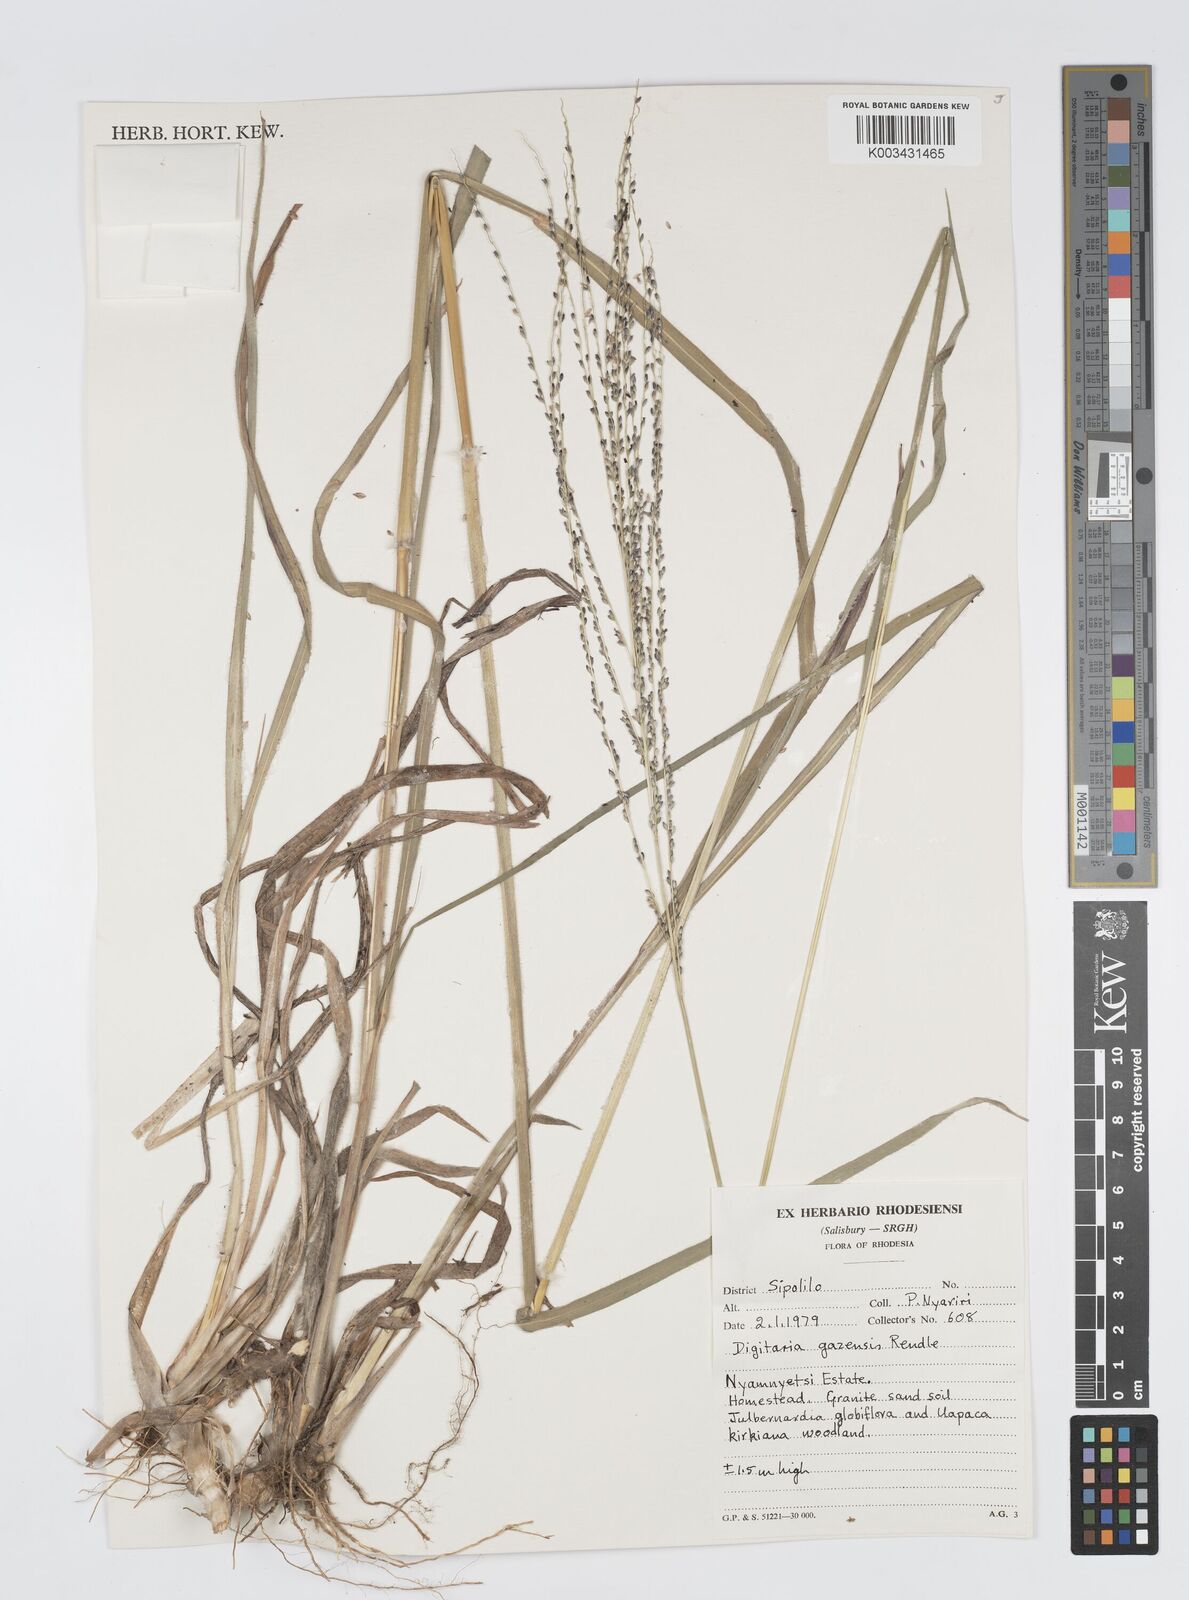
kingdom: Plantae
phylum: Tracheophyta
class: Liliopsida
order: Poales
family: Poaceae
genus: Digitaria
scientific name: Digitaria gazensis
